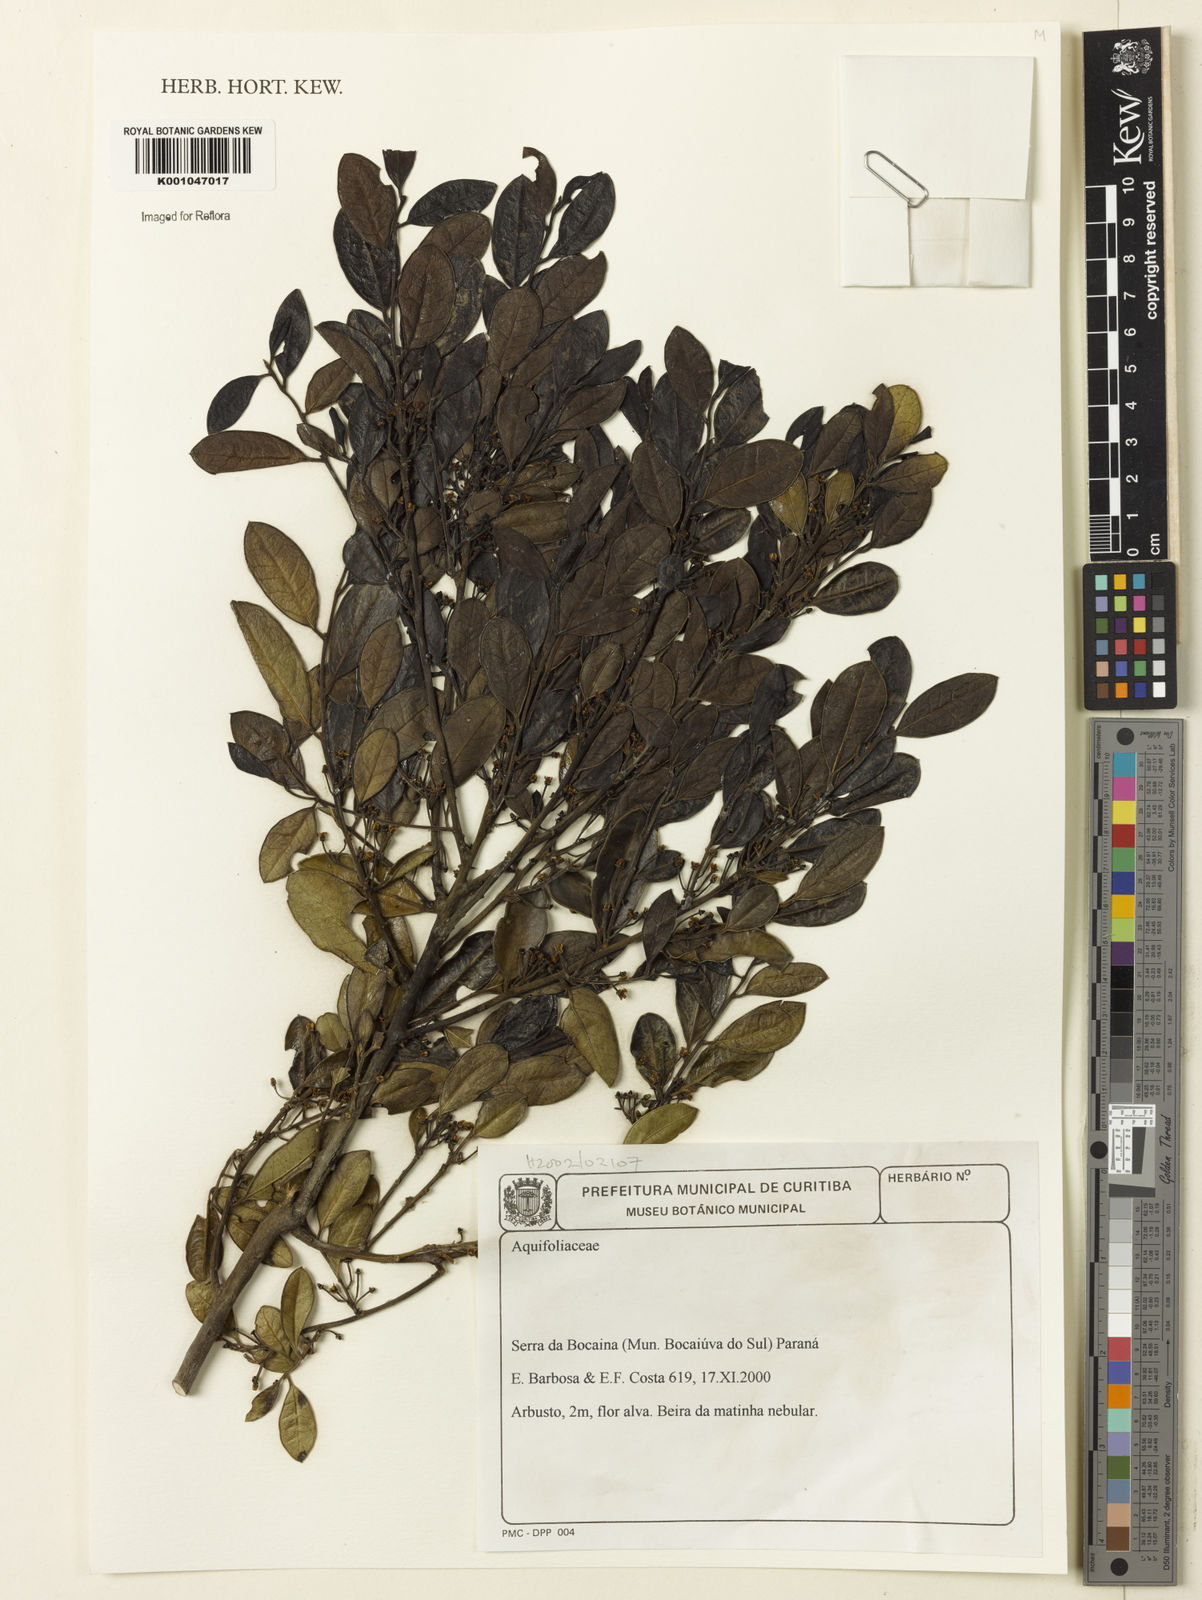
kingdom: Plantae
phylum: Tracheophyta
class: Magnoliopsida
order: Aquifoliales
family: Aquifoliaceae
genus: Ilex
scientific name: Ilex
